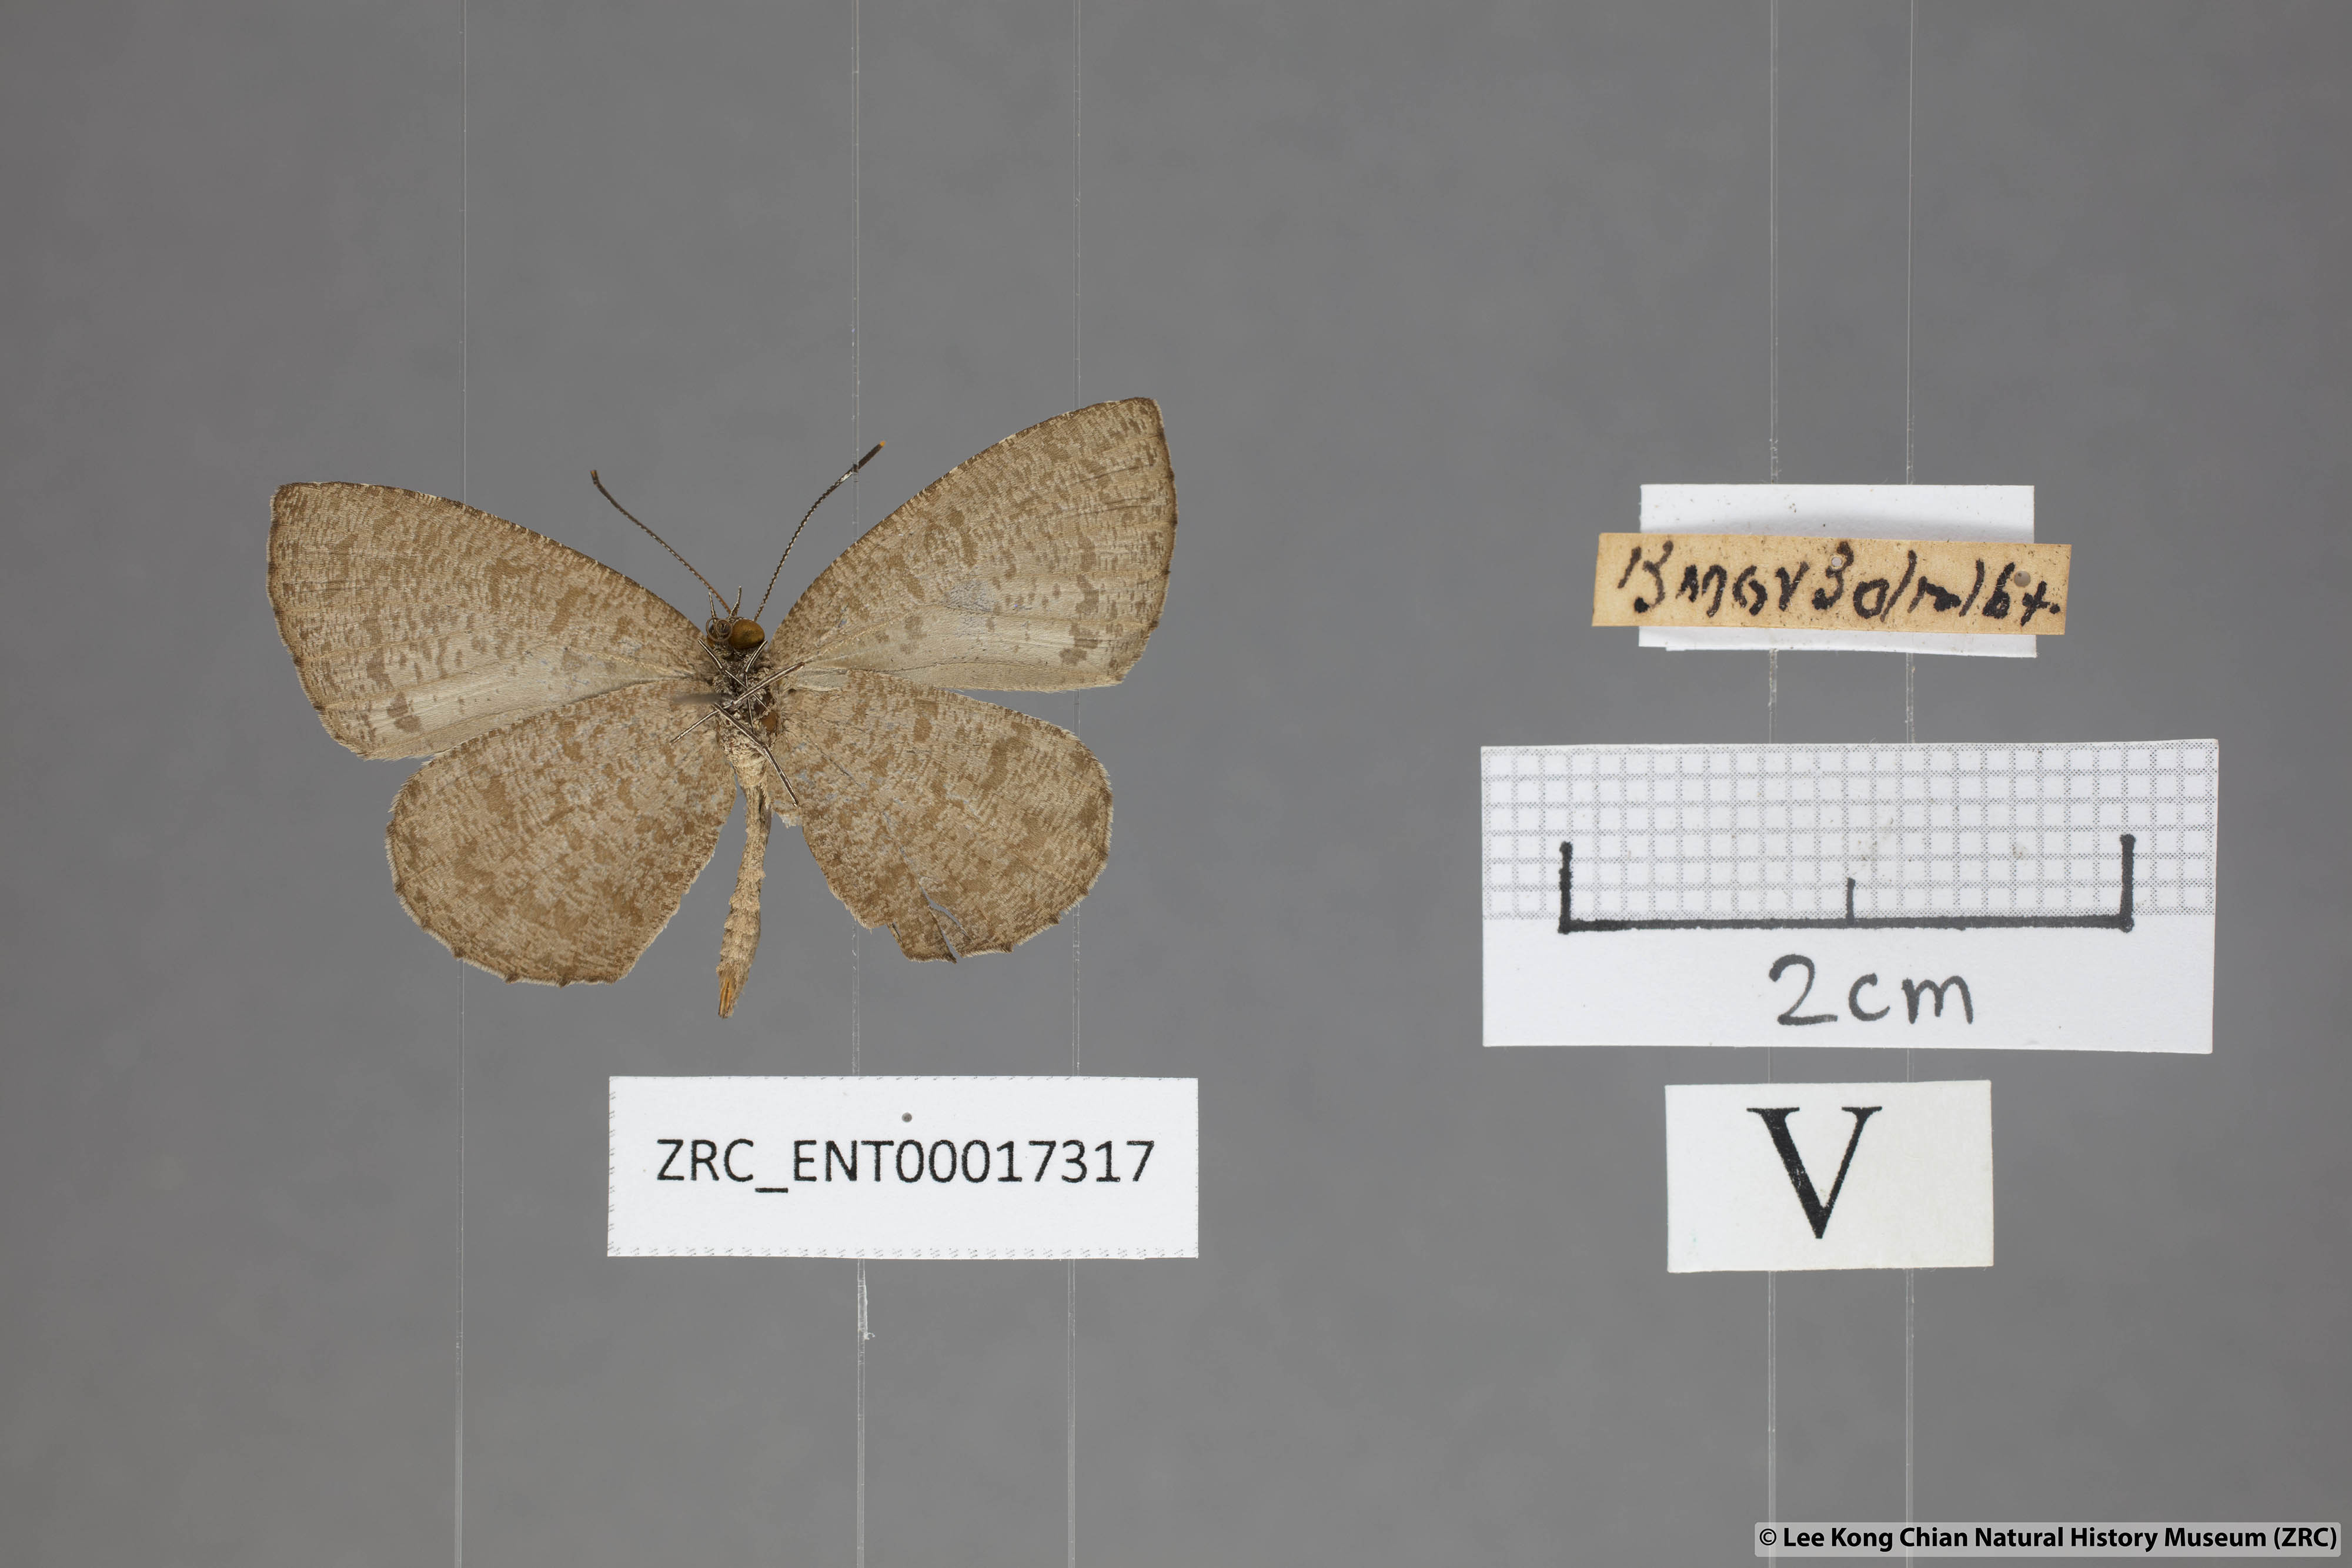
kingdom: Animalia
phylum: Arthropoda
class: Insecta
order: Lepidoptera
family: Lycaenidae
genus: Allotinus
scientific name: Allotinus subviolaceus
